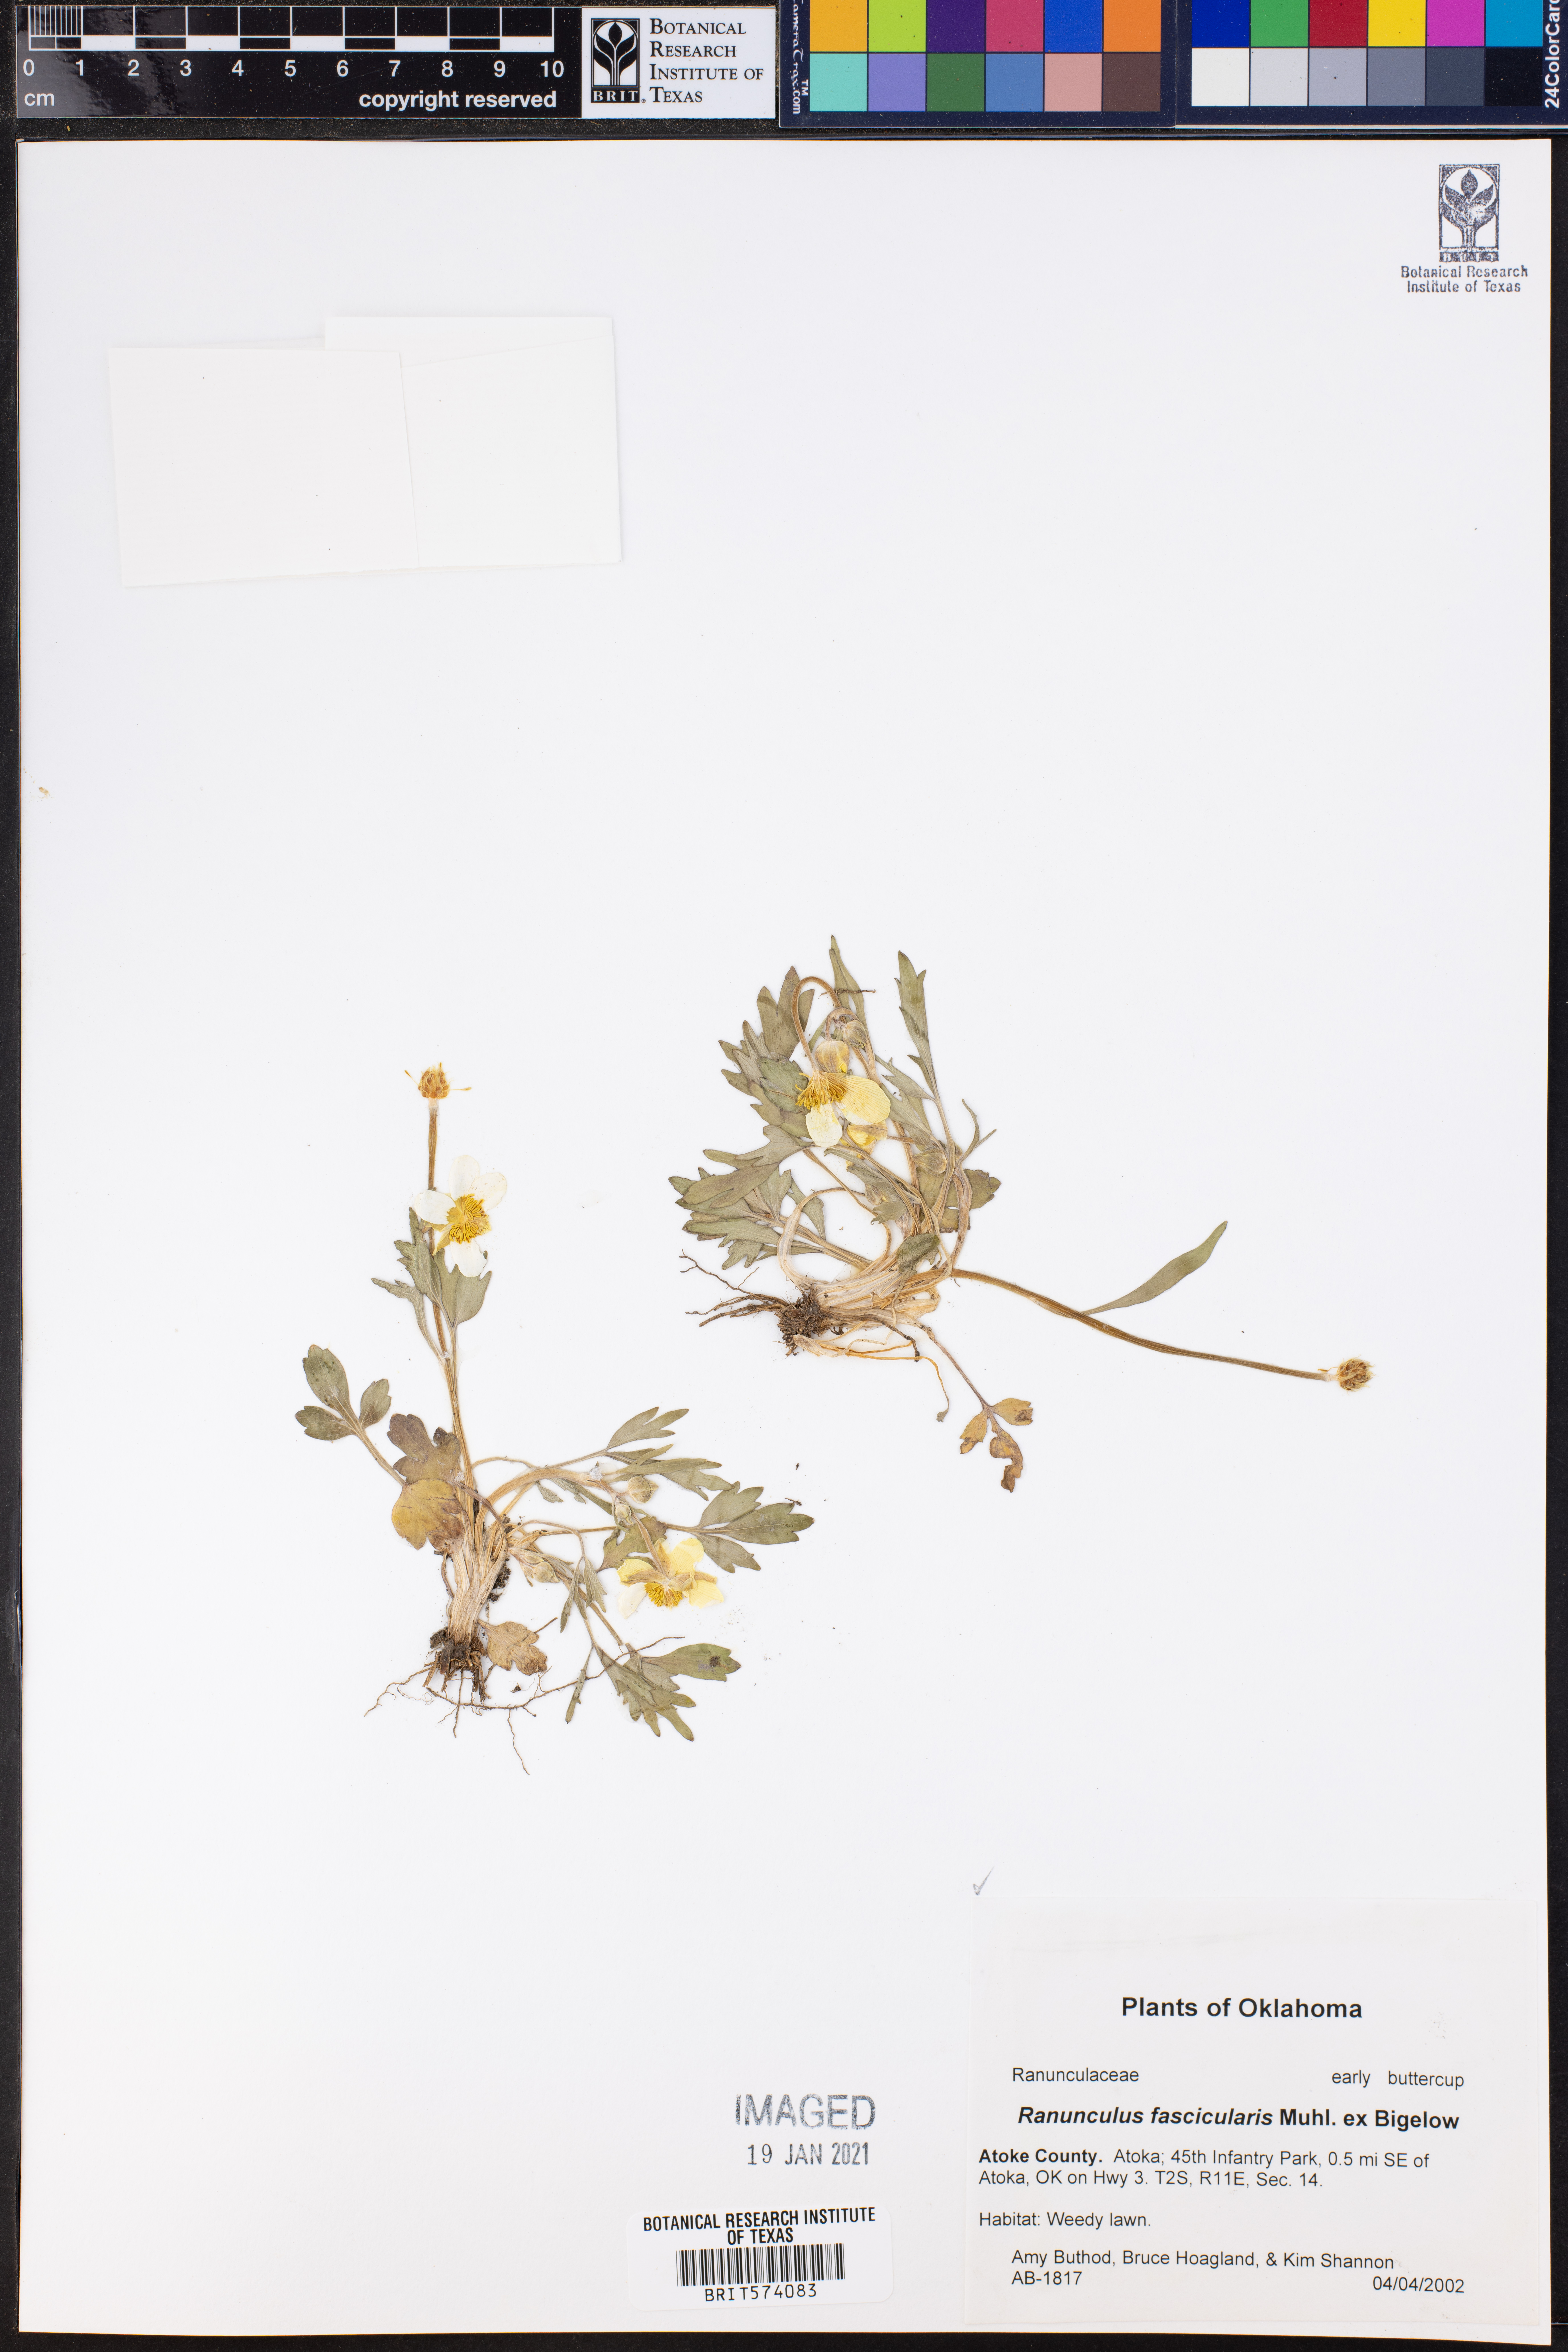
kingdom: Plantae
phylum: Tracheophyta
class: Magnoliopsida
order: Ranunculales
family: Ranunculaceae
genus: Ranunculus
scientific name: Ranunculus fascicularis
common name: Early buttercup
